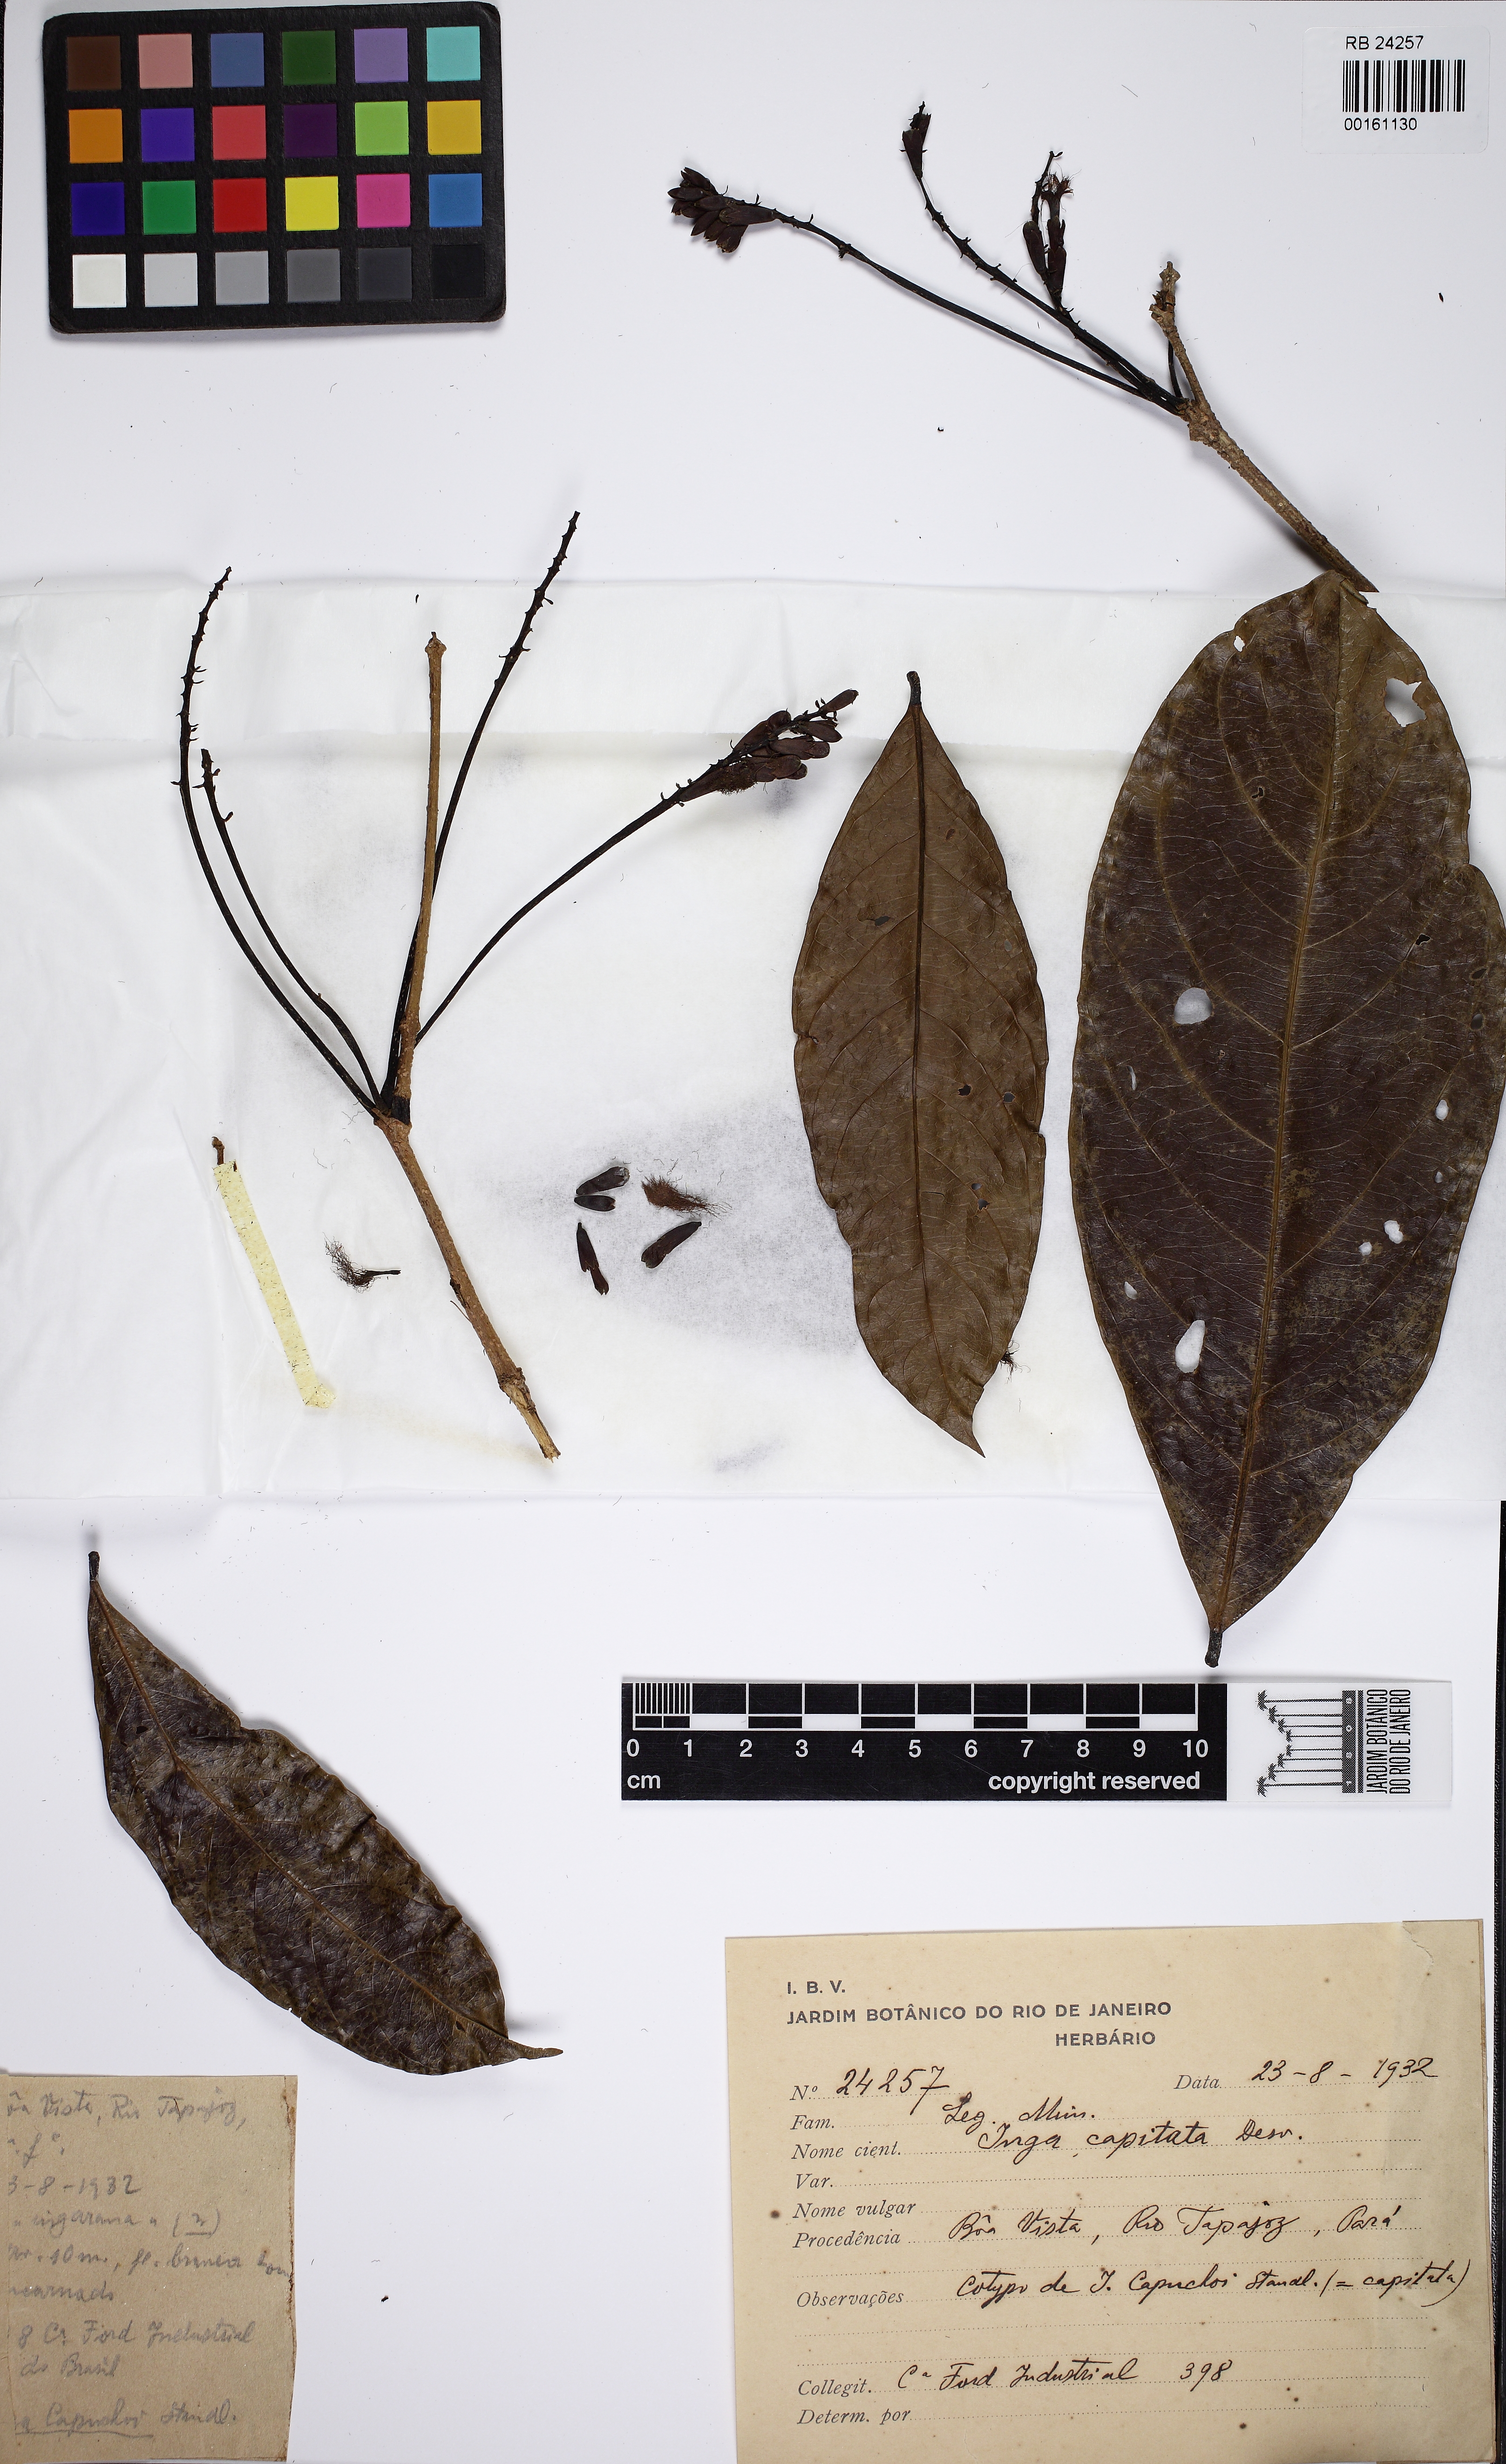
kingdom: Plantae
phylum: Tracheophyta
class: Magnoliopsida
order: Fabales
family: Fabaceae
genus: Inga
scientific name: Inga capitata
